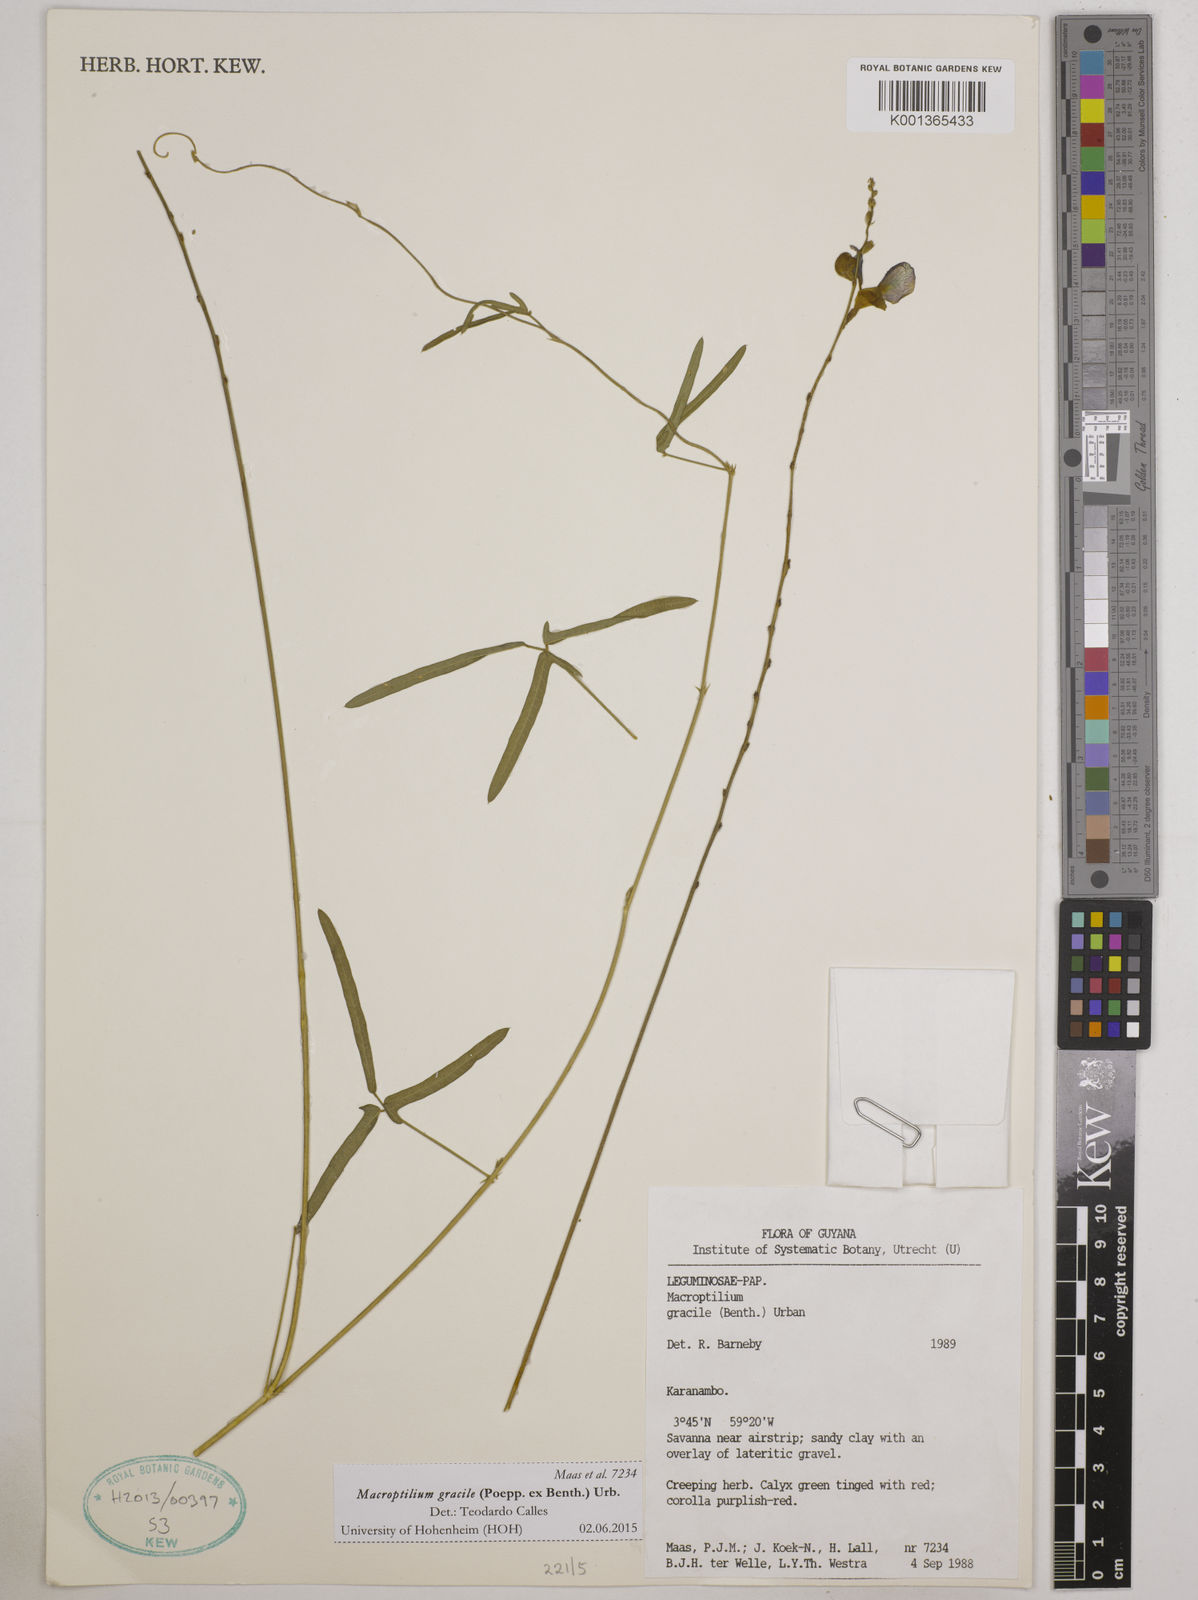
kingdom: Plantae
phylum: Tracheophyta
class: Magnoliopsida
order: Fabales
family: Fabaceae
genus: Macroptilium
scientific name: Macroptilium gracile
